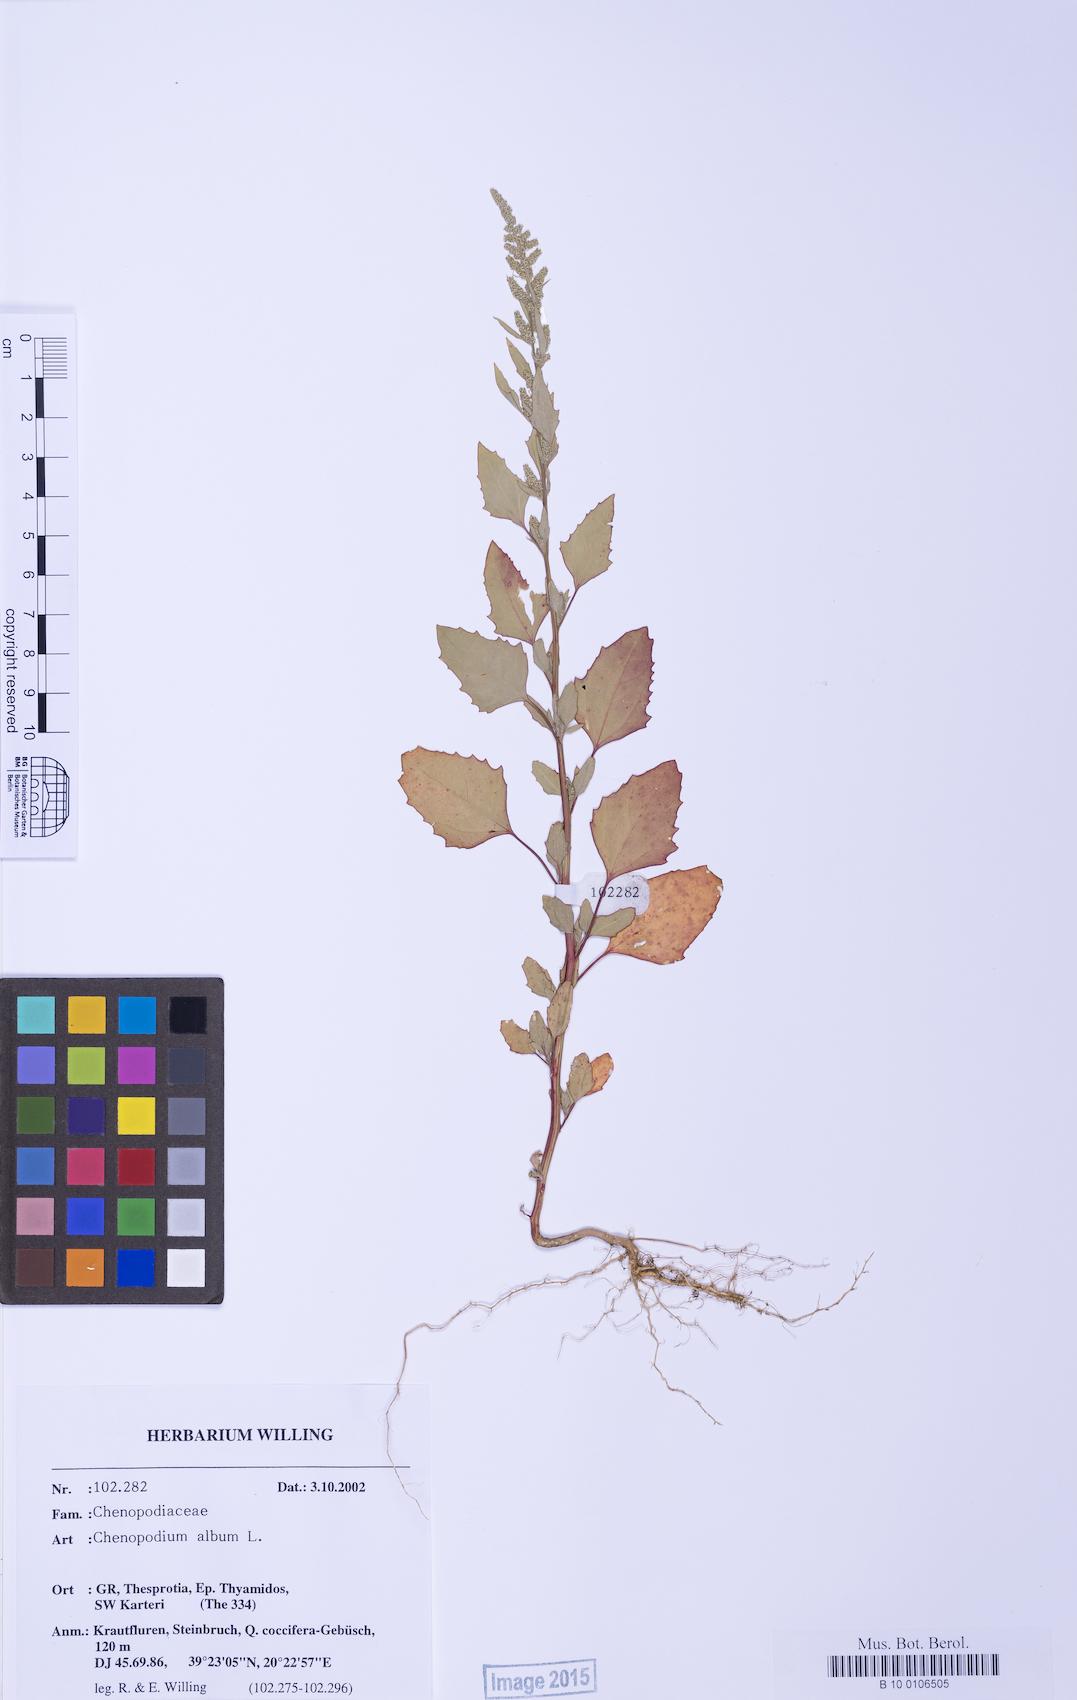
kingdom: Plantae
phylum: Tracheophyta
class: Magnoliopsida
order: Caryophyllales
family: Amaranthaceae
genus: Chenopodium
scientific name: Chenopodium betaceum
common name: Striped goosefoot
